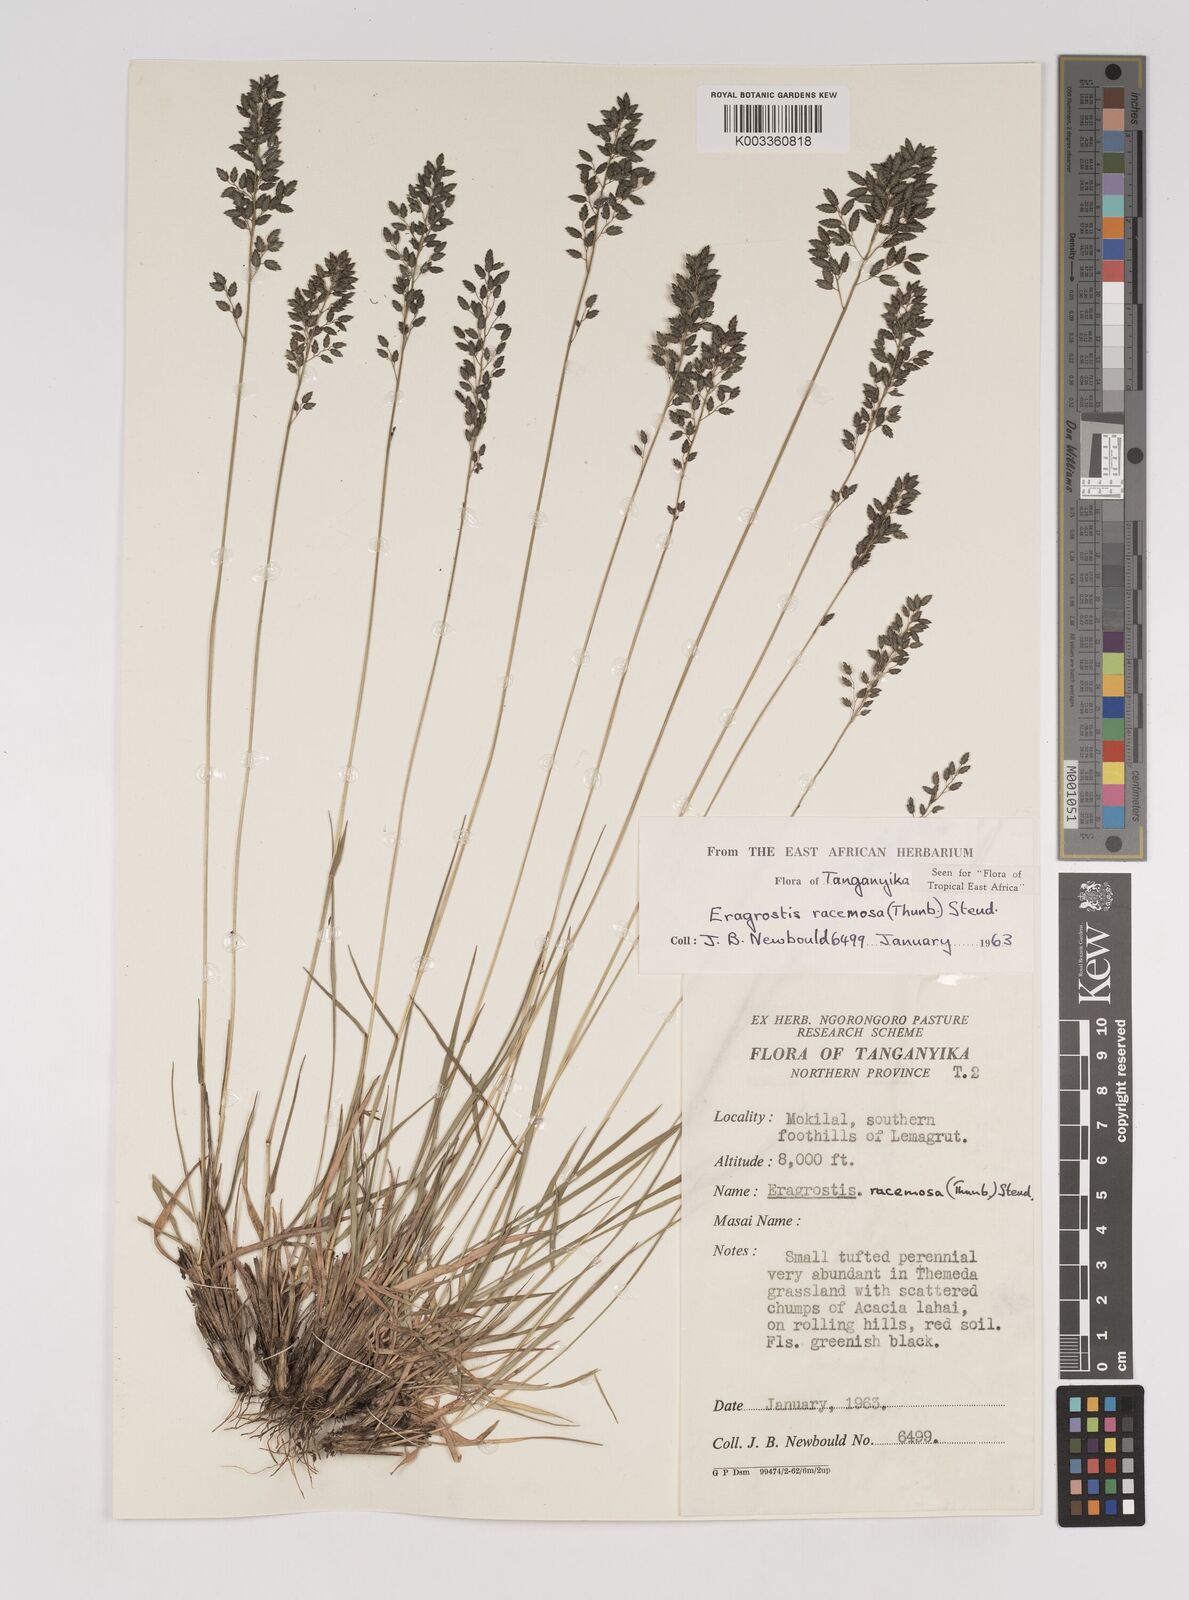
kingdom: Plantae
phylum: Tracheophyta
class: Liliopsida
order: Poales
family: Poaceae
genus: Eragrostis
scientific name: Eragrostis racemosa
